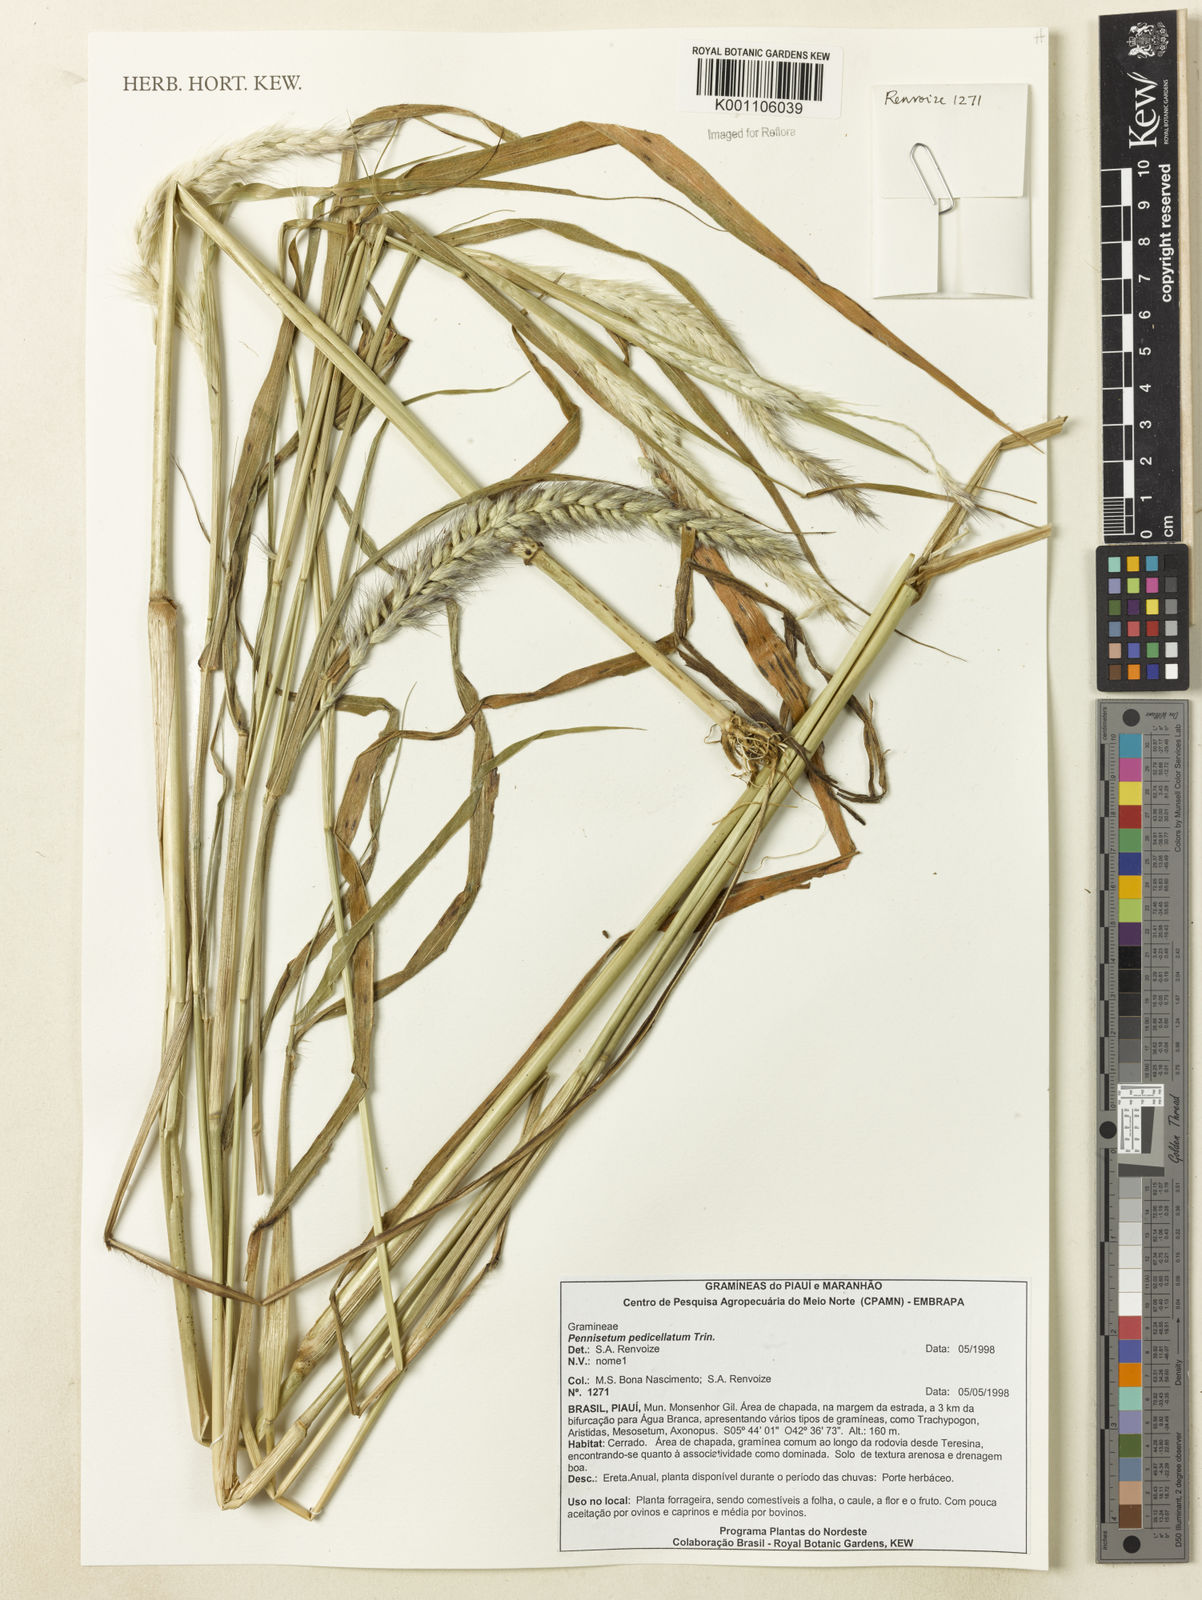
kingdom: Plantae
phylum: Tracheophyta
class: Liliopsida
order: Poales
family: Poaceae
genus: Cenchrus
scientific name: Cenchrus pedicellatus
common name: Hairy fountain grass
